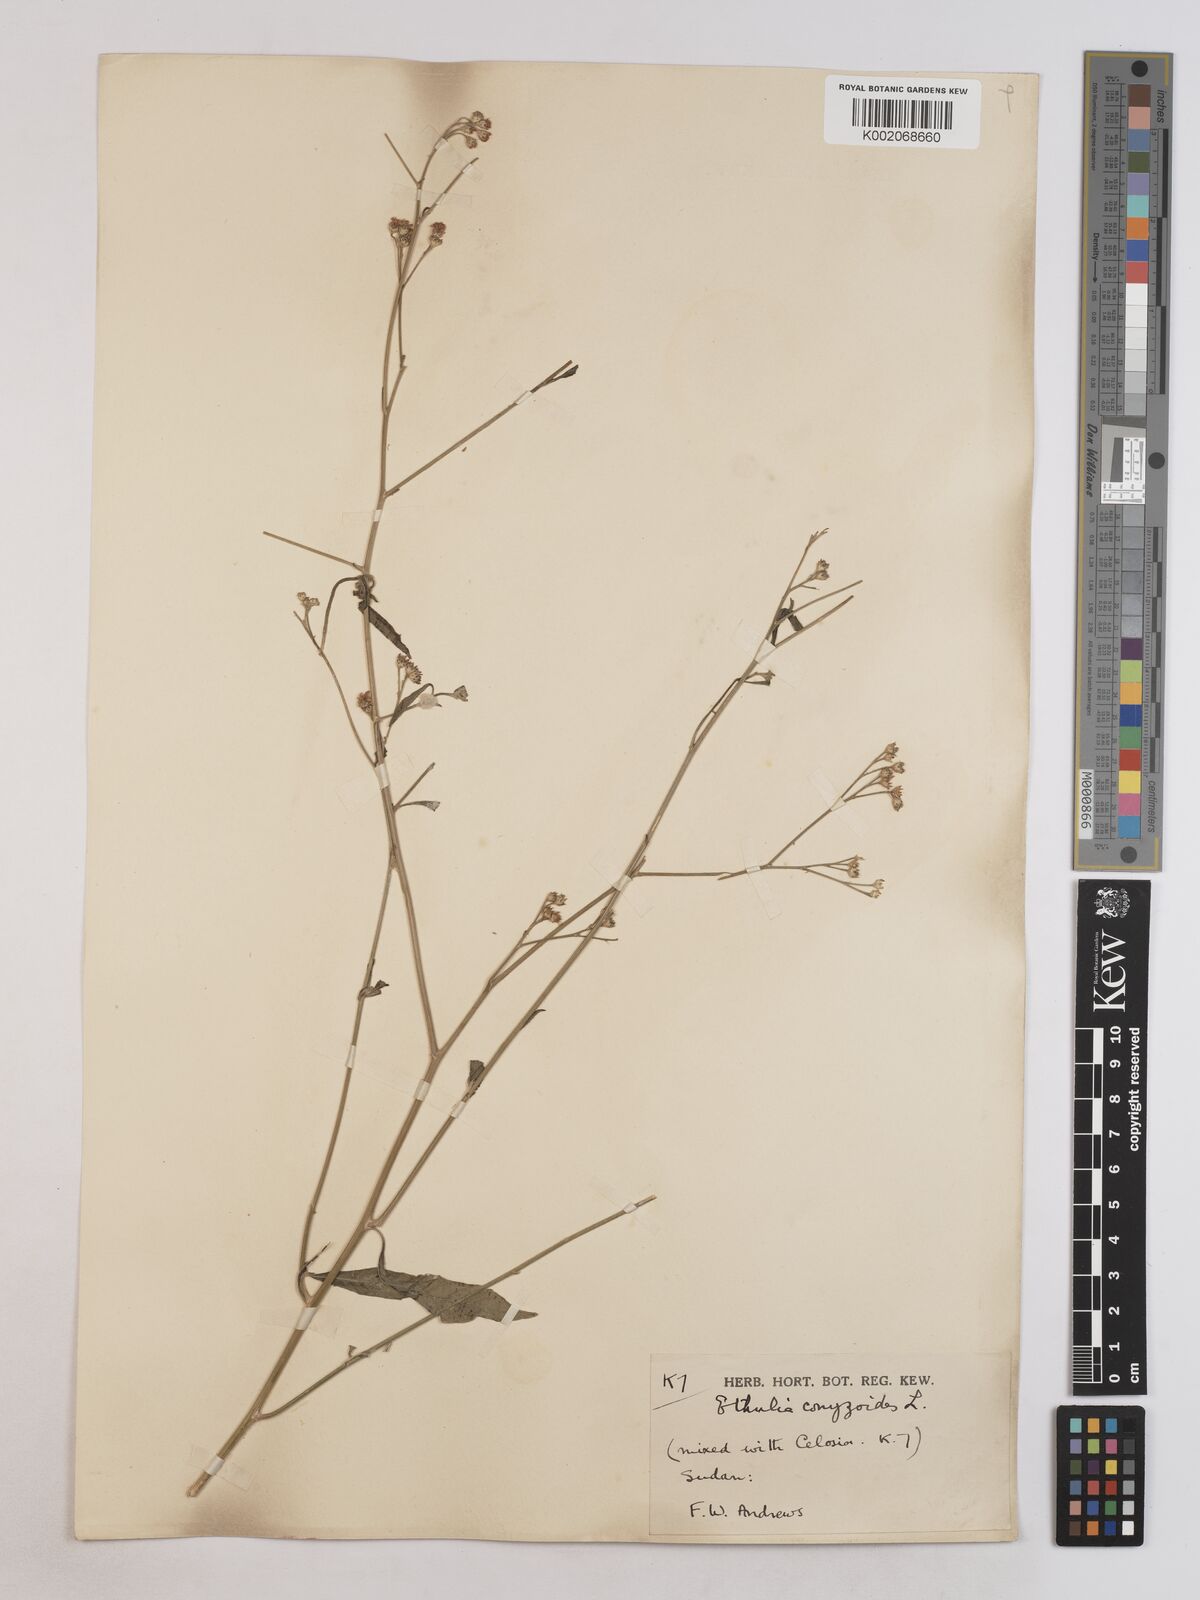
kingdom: Plantae
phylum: Tracheophyta
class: Magnoliopsida
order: Asterales
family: Asteraceae
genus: Ethulia
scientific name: Ethulia gracilis
